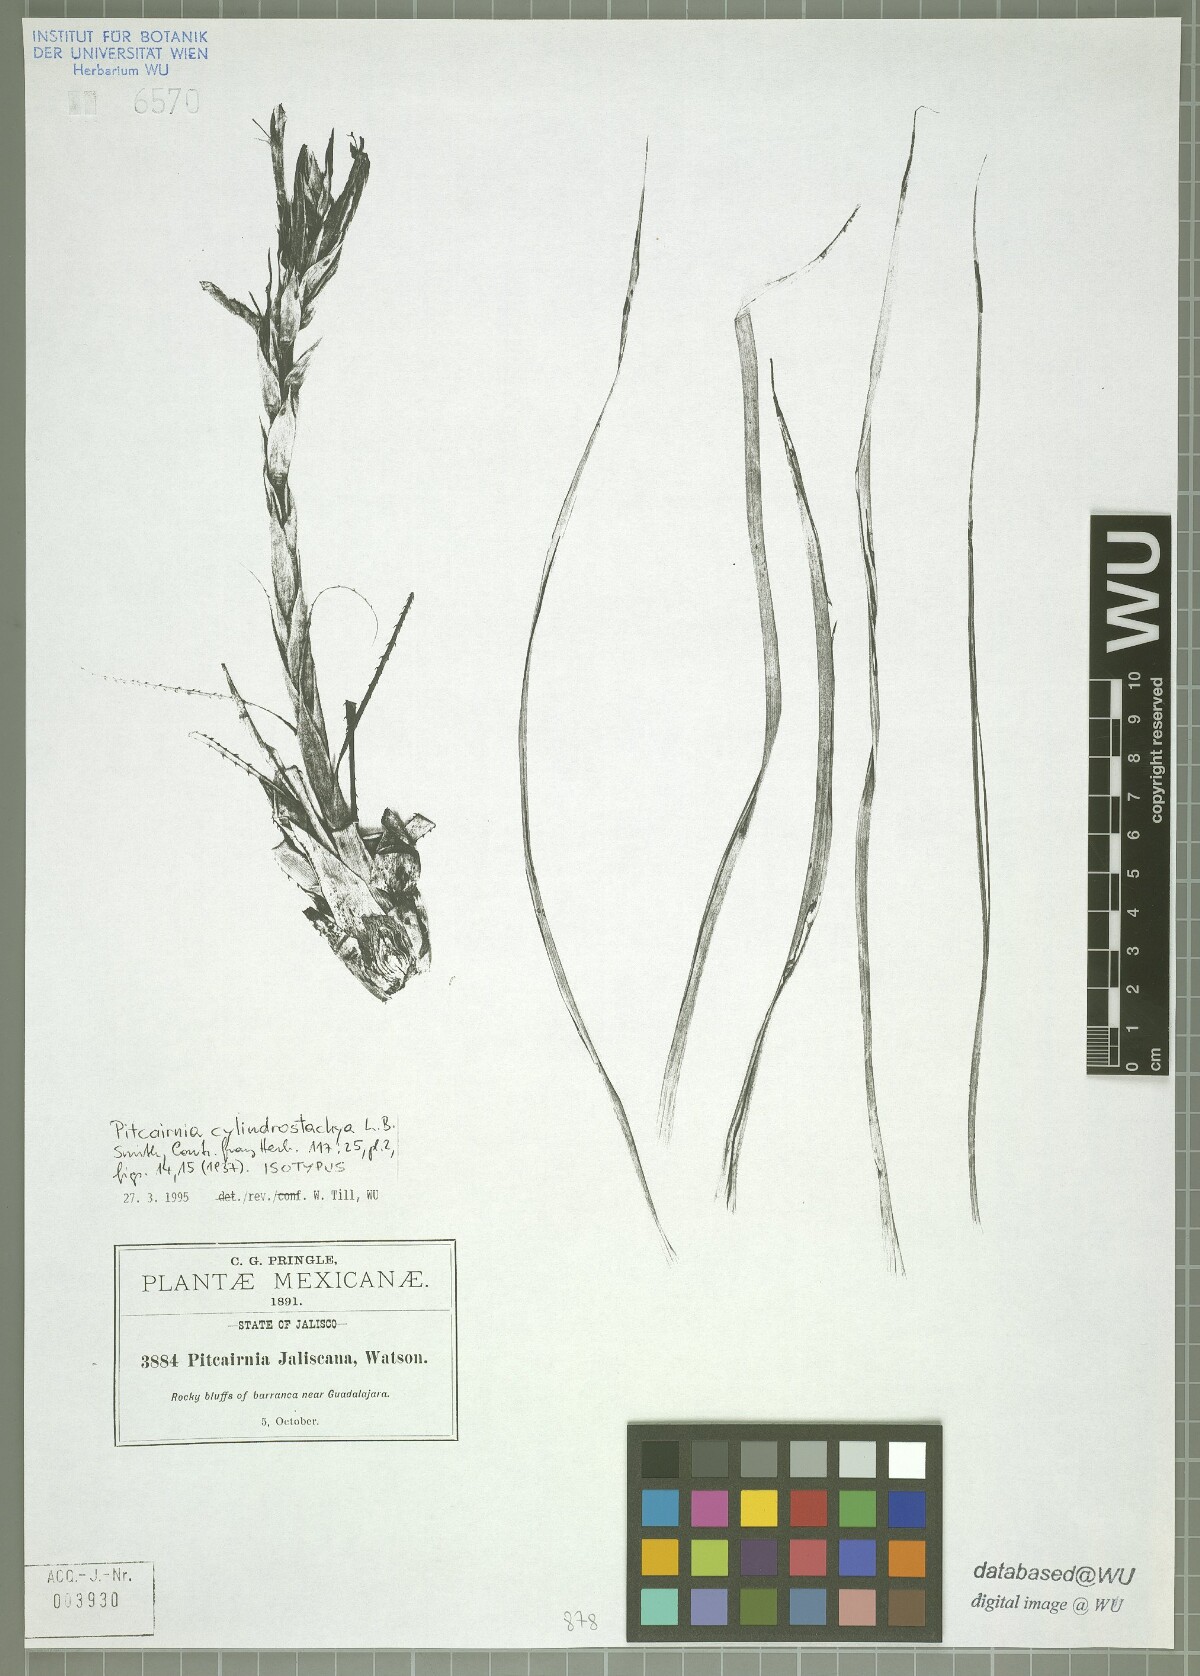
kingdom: Plantae
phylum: Tracheophyta
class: Liliopsida
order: Poales
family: Bromeliaceae
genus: Pitcairnia
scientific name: Pitcairnia cylindrostachya
